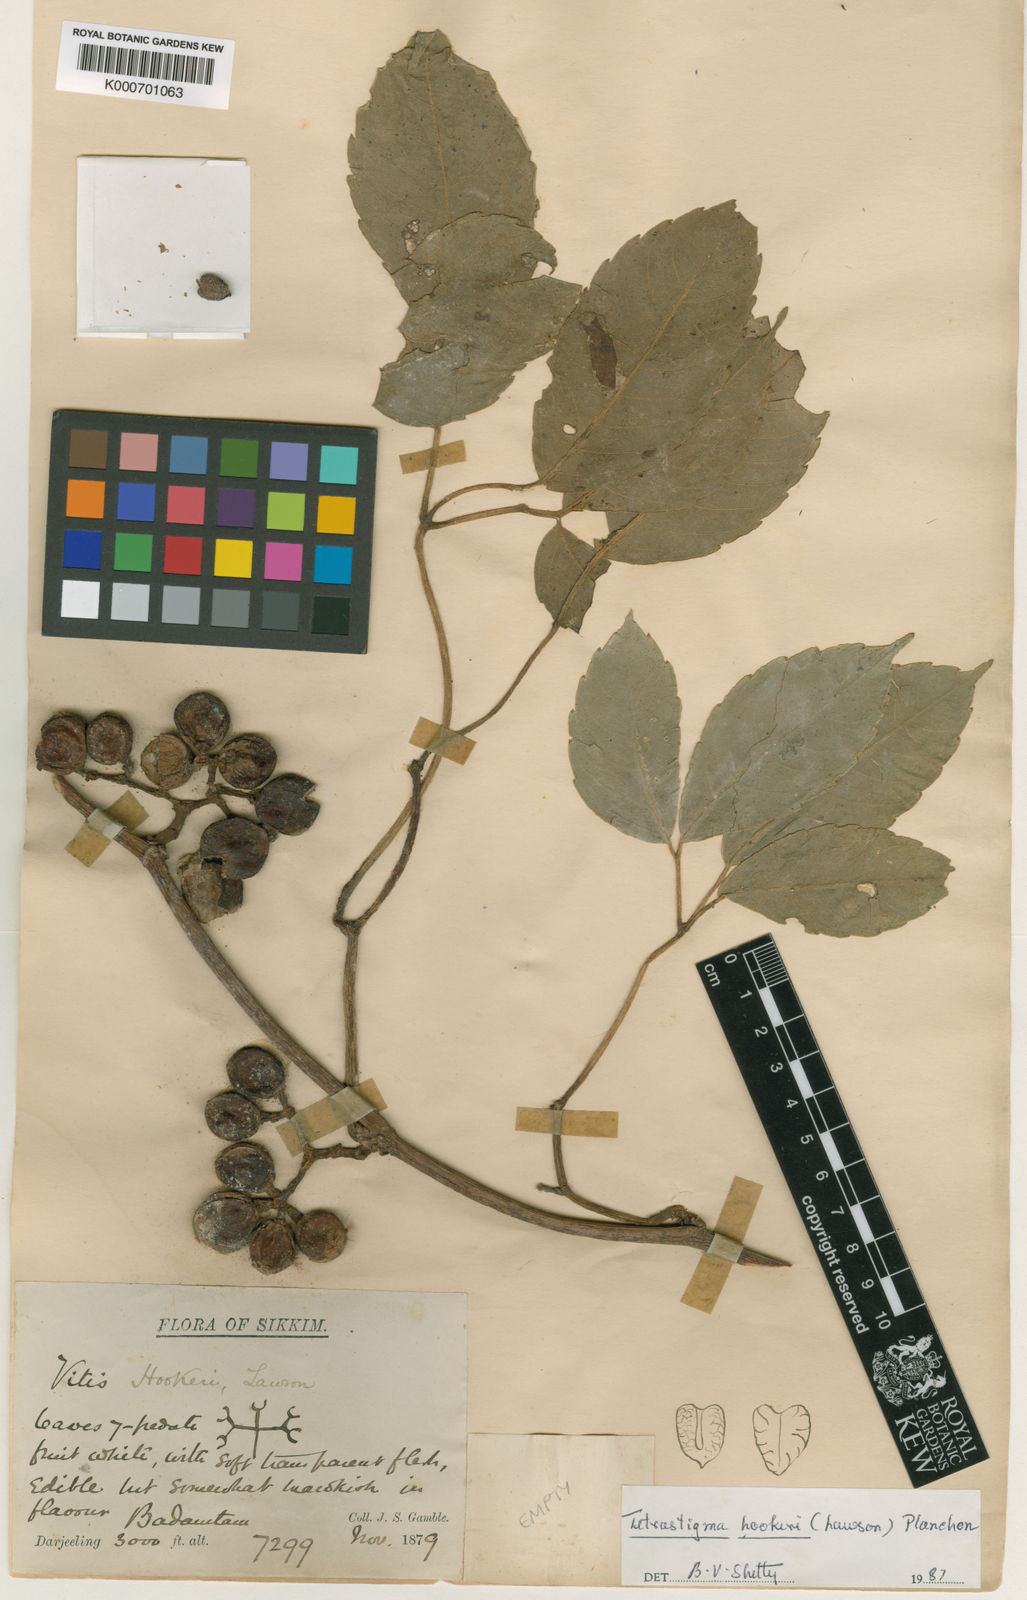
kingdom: Plantae
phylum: Tracheophyta
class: Magnoliopsida
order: Vitales
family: Vitaceae
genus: Tetrastigma
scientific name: Tetrastigma hookeri
